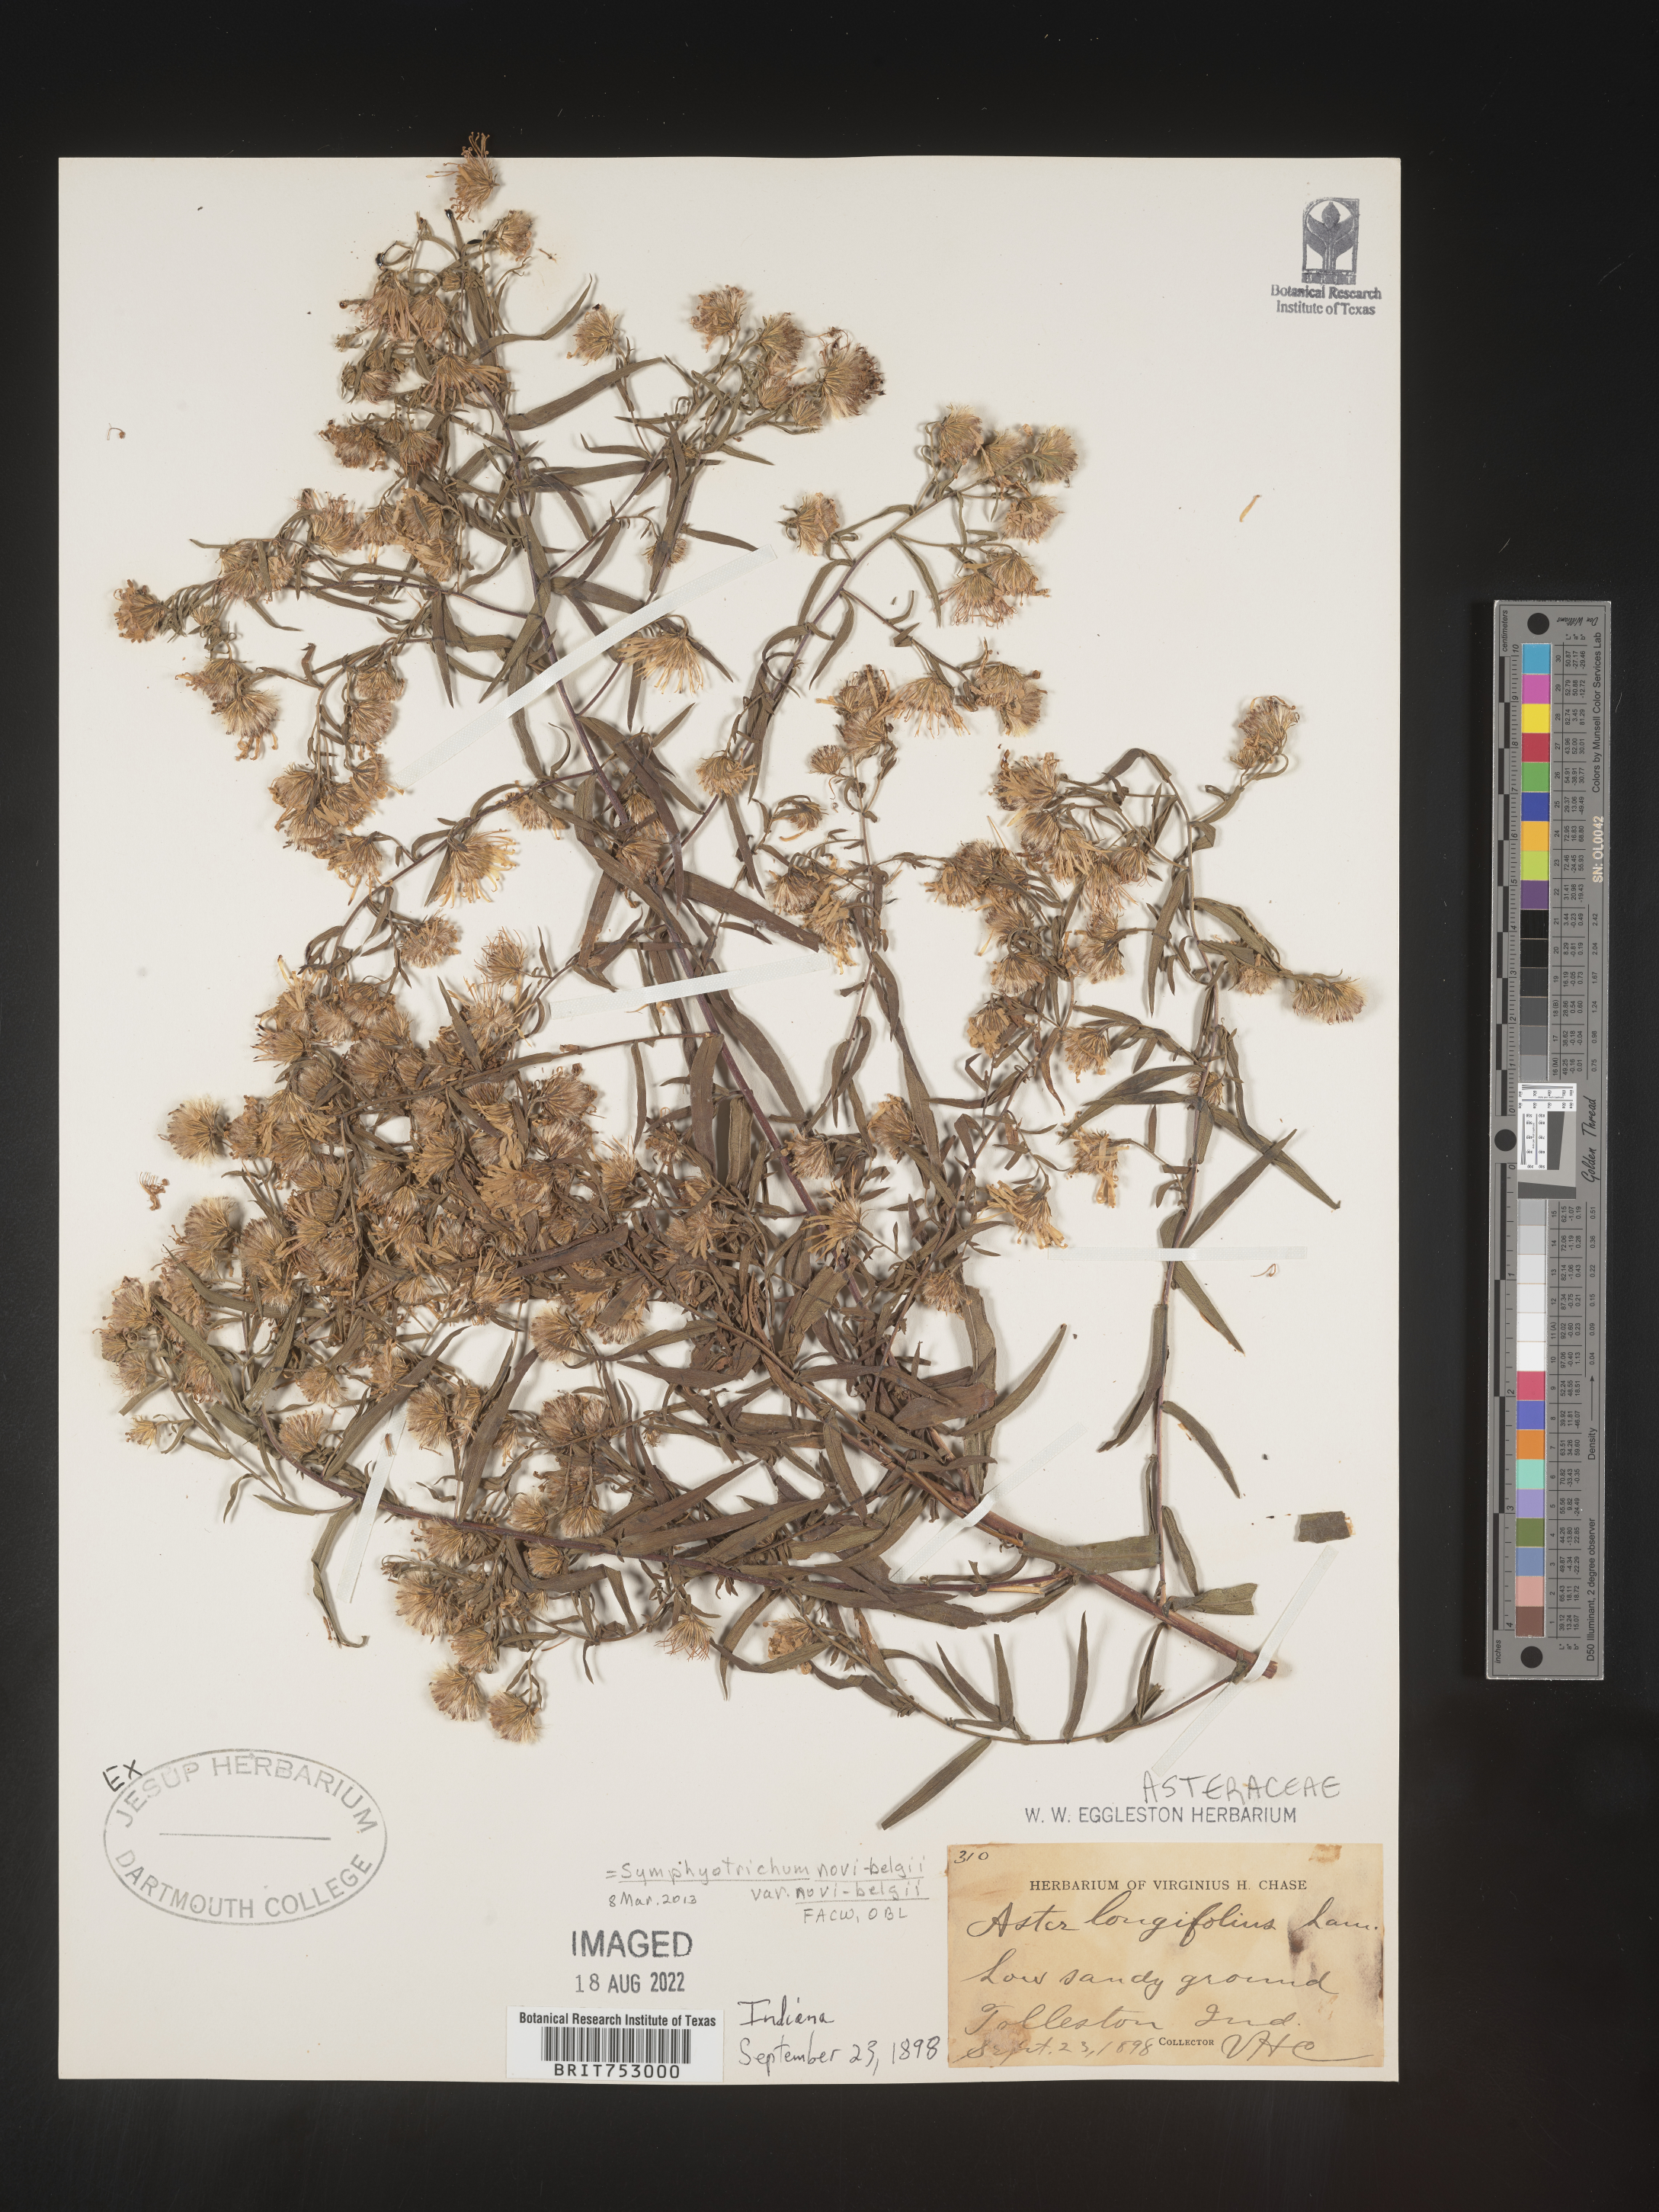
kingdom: Plantae
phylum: Tracheophyta
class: Magnoliopsida
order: Asterales
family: Asteraceae
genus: Symphyotrichum
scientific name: Symphyotrichum novae-angliae
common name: Michaelmas daisy
